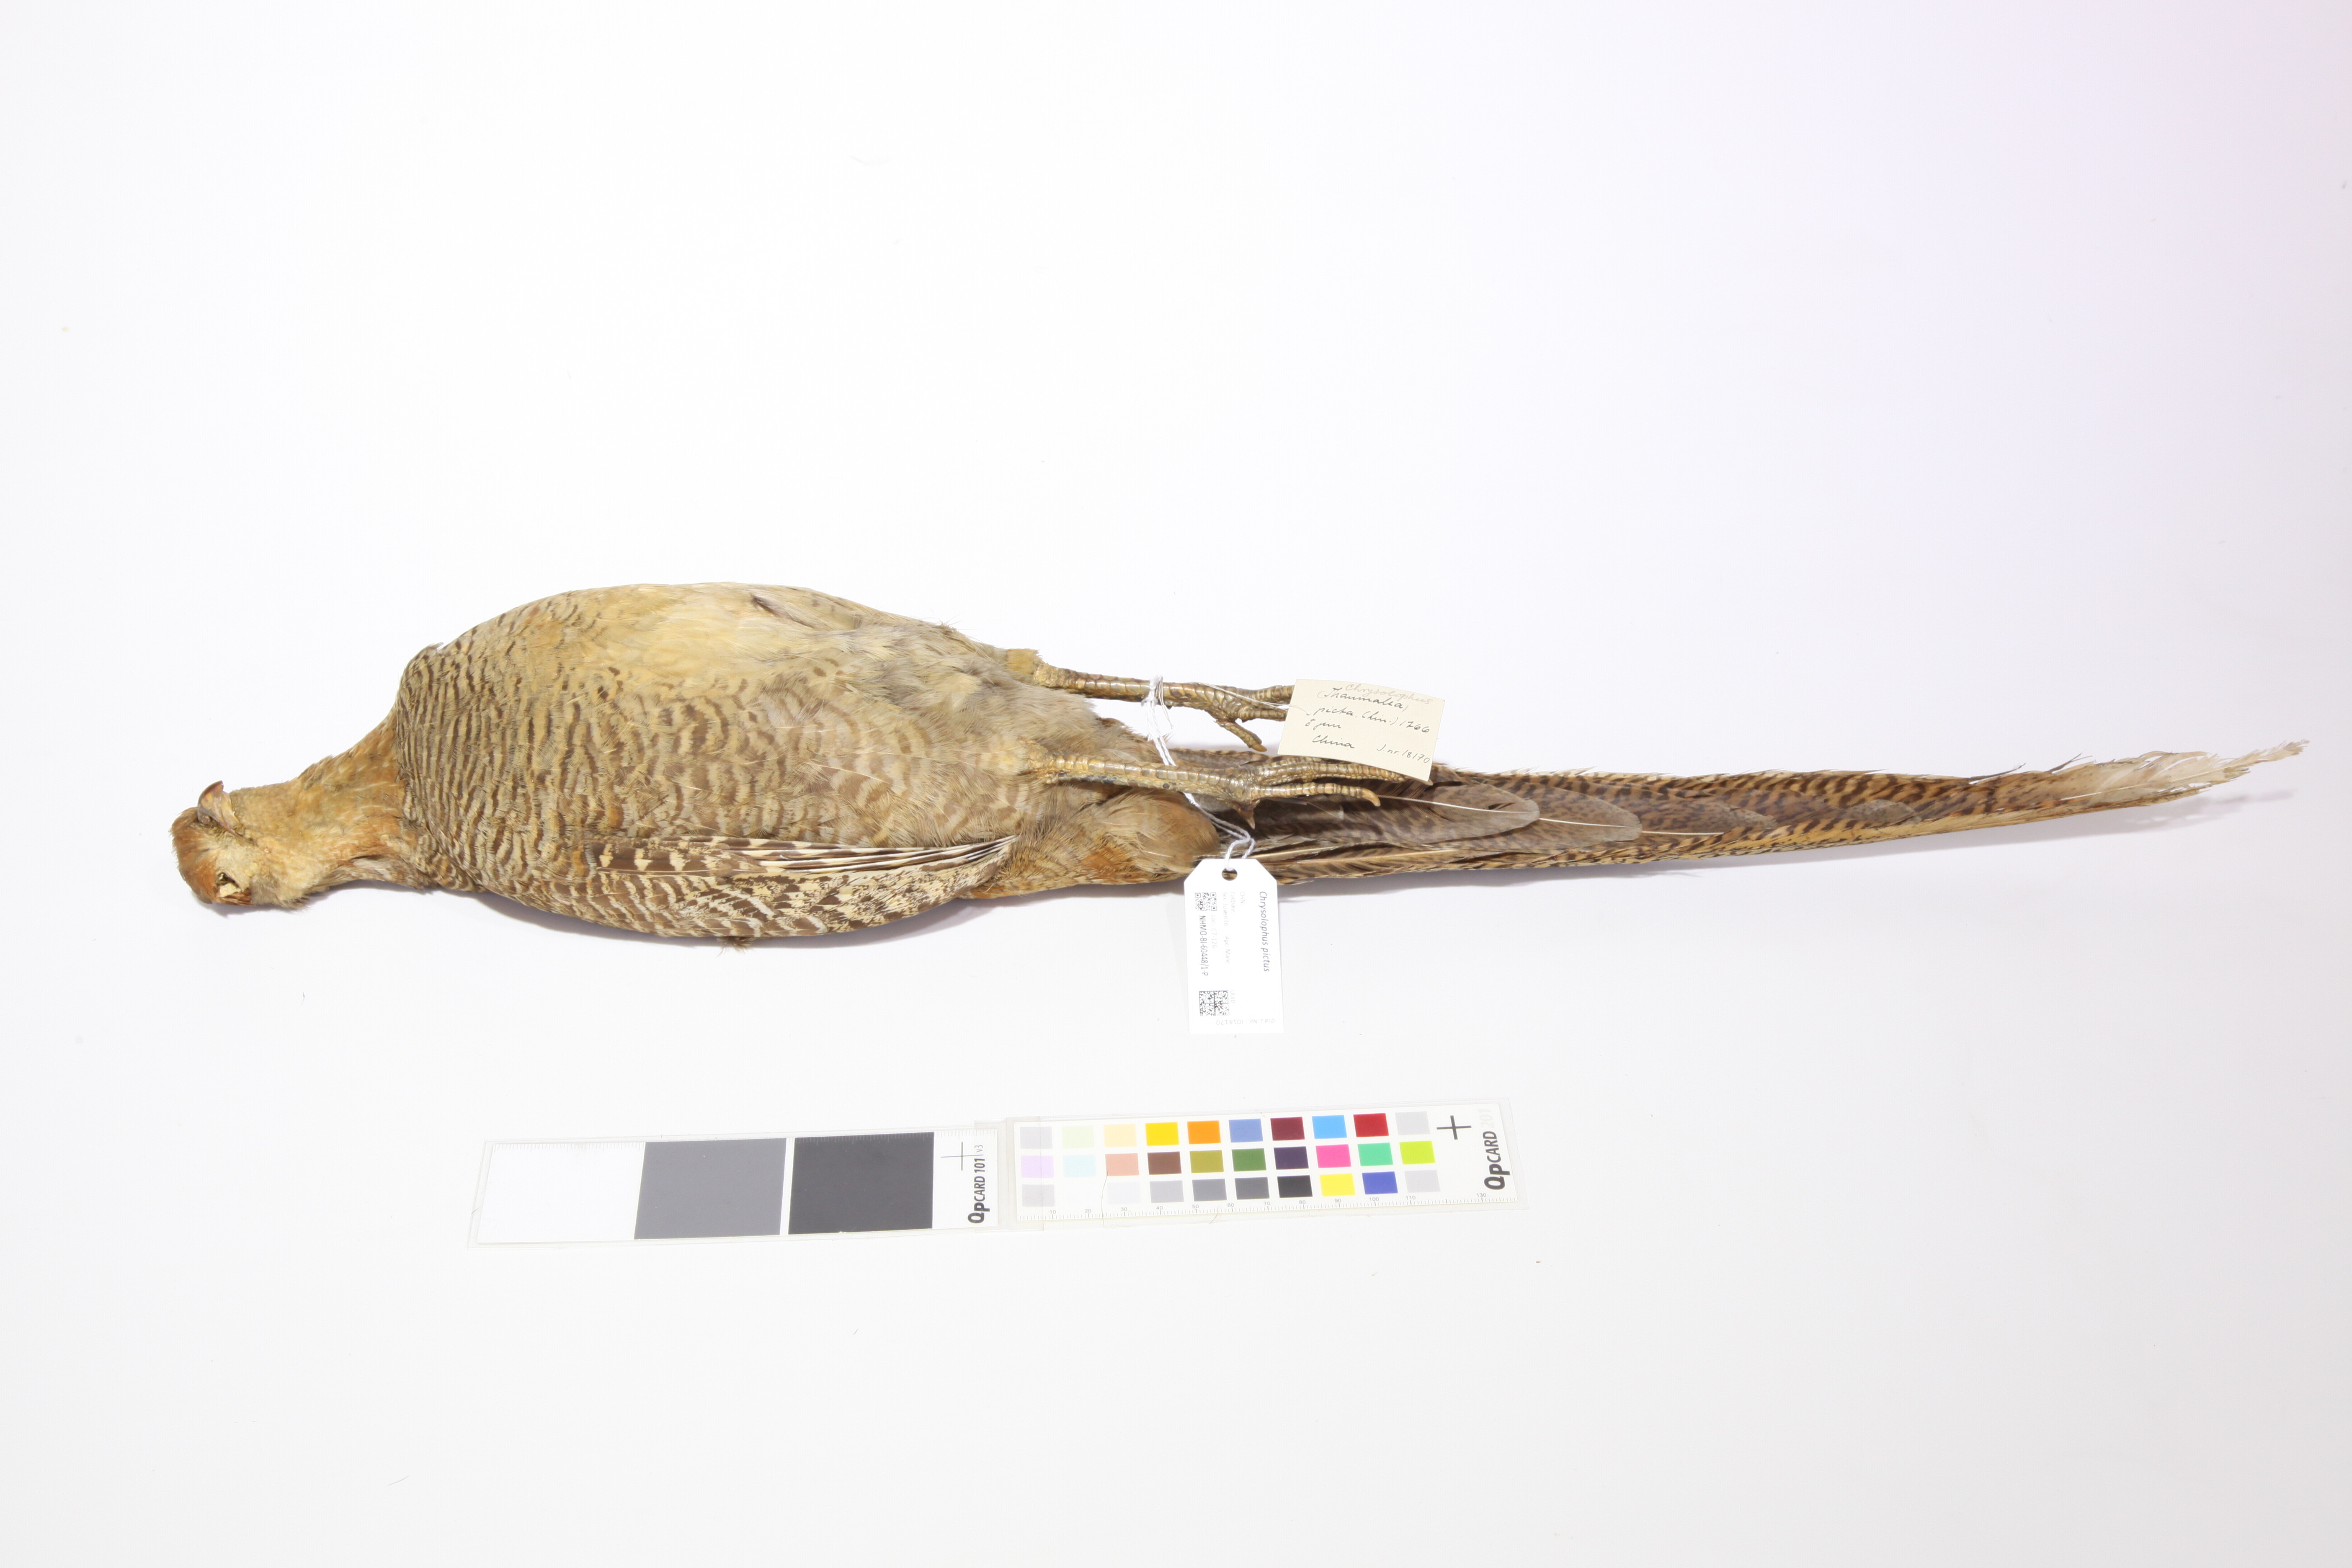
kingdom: Animalia
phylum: Chordata
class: Aves
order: Galliformes
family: Phasianidae
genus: Chrysolophus
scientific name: Chrysolophus pictus
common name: Golden pheasant
